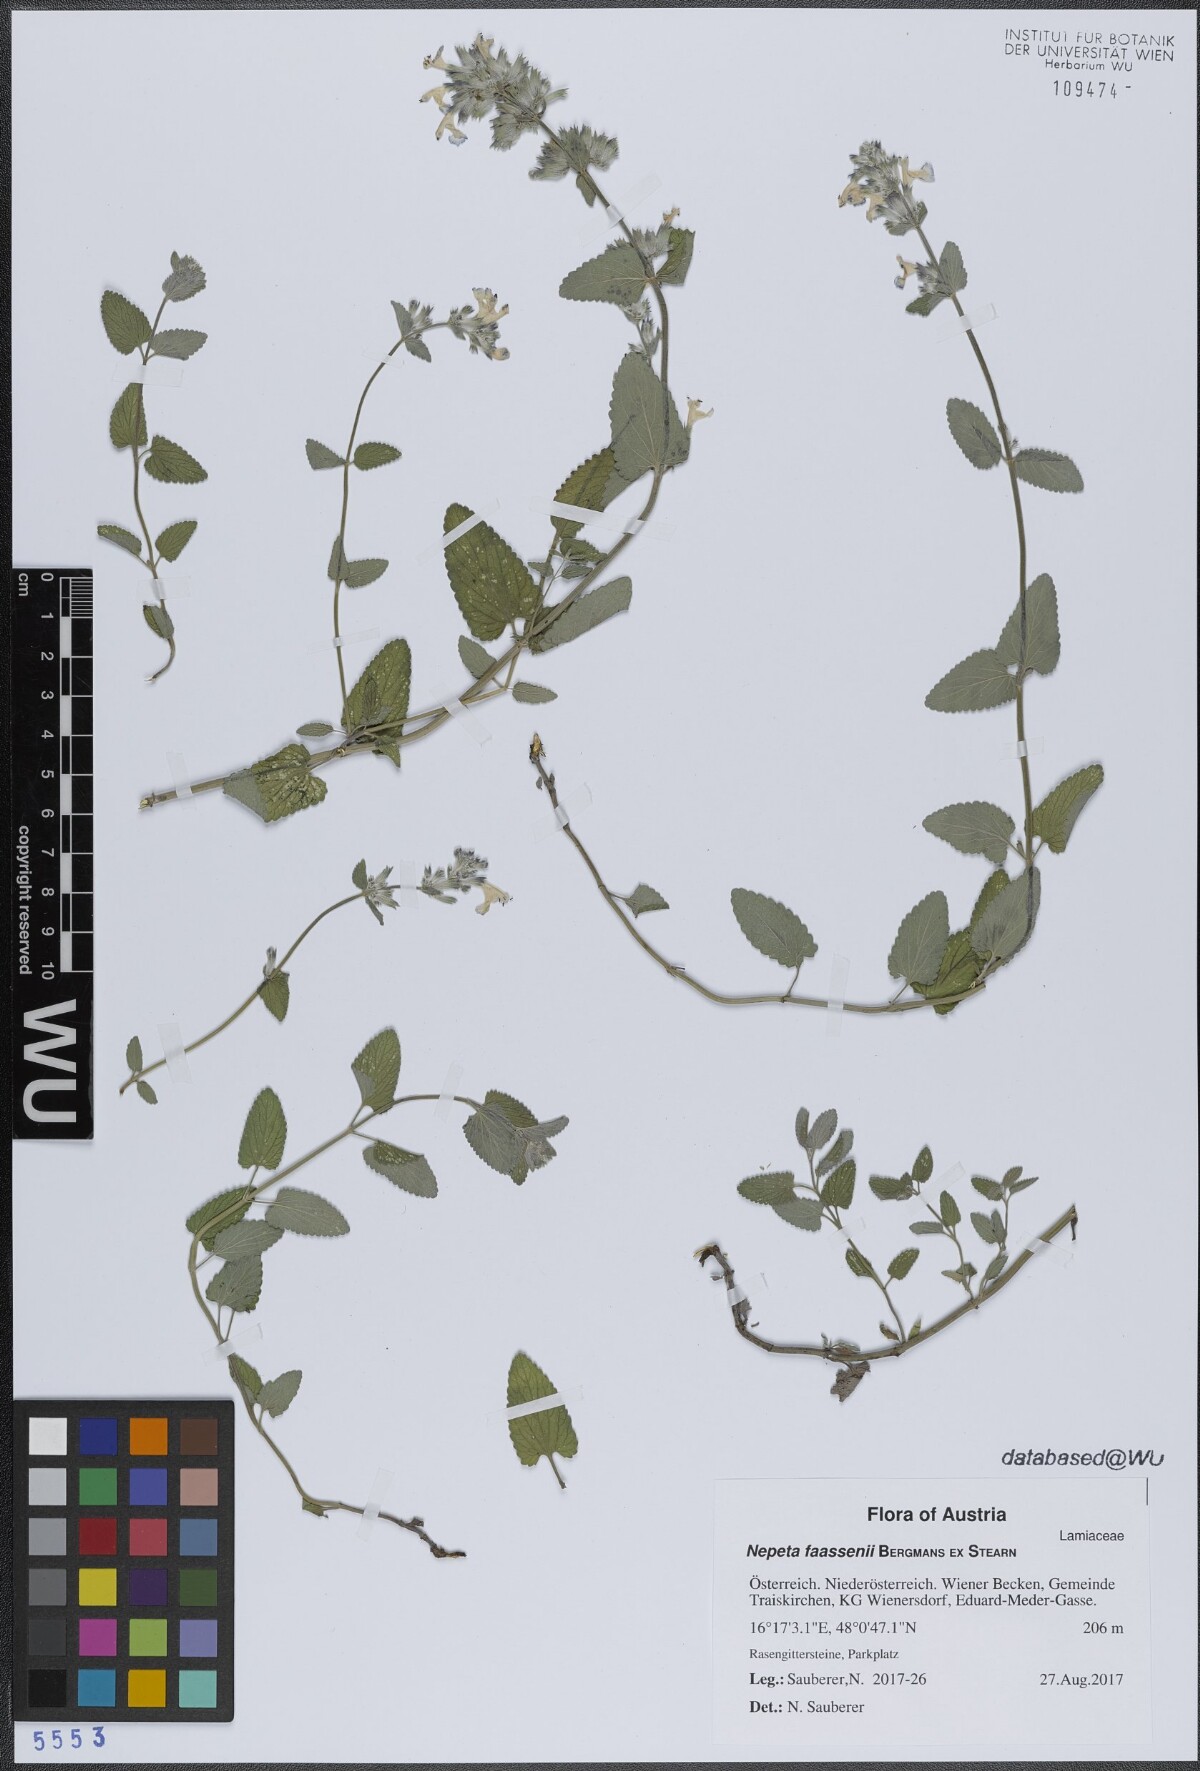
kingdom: Plantae
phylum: Tracheophyta
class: Magnoliopsida
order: Lamiales
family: Lamiaceae
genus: Nepeta
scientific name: Nepeta faassenii
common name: Catmint
